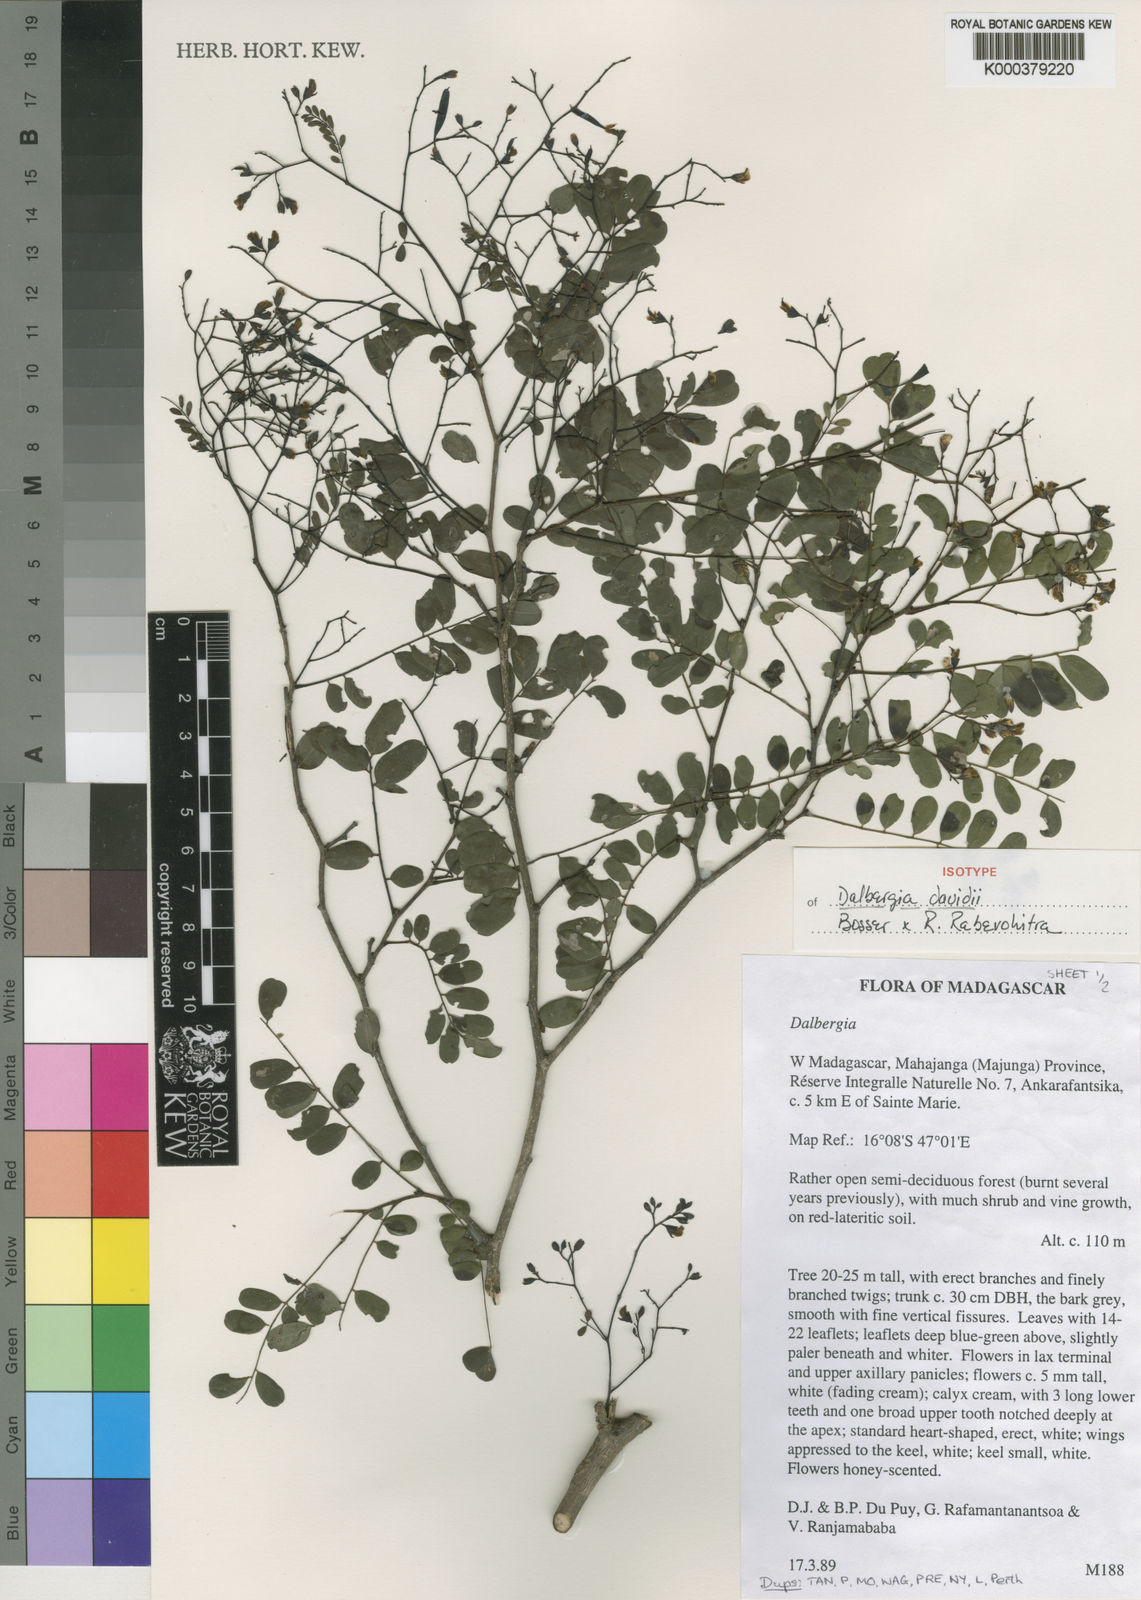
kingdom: Plantae
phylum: Tracheophyta
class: Magnoliopsida
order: Fabales
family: Fabaceae
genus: Dalbergia
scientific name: Dalbergia davidii
